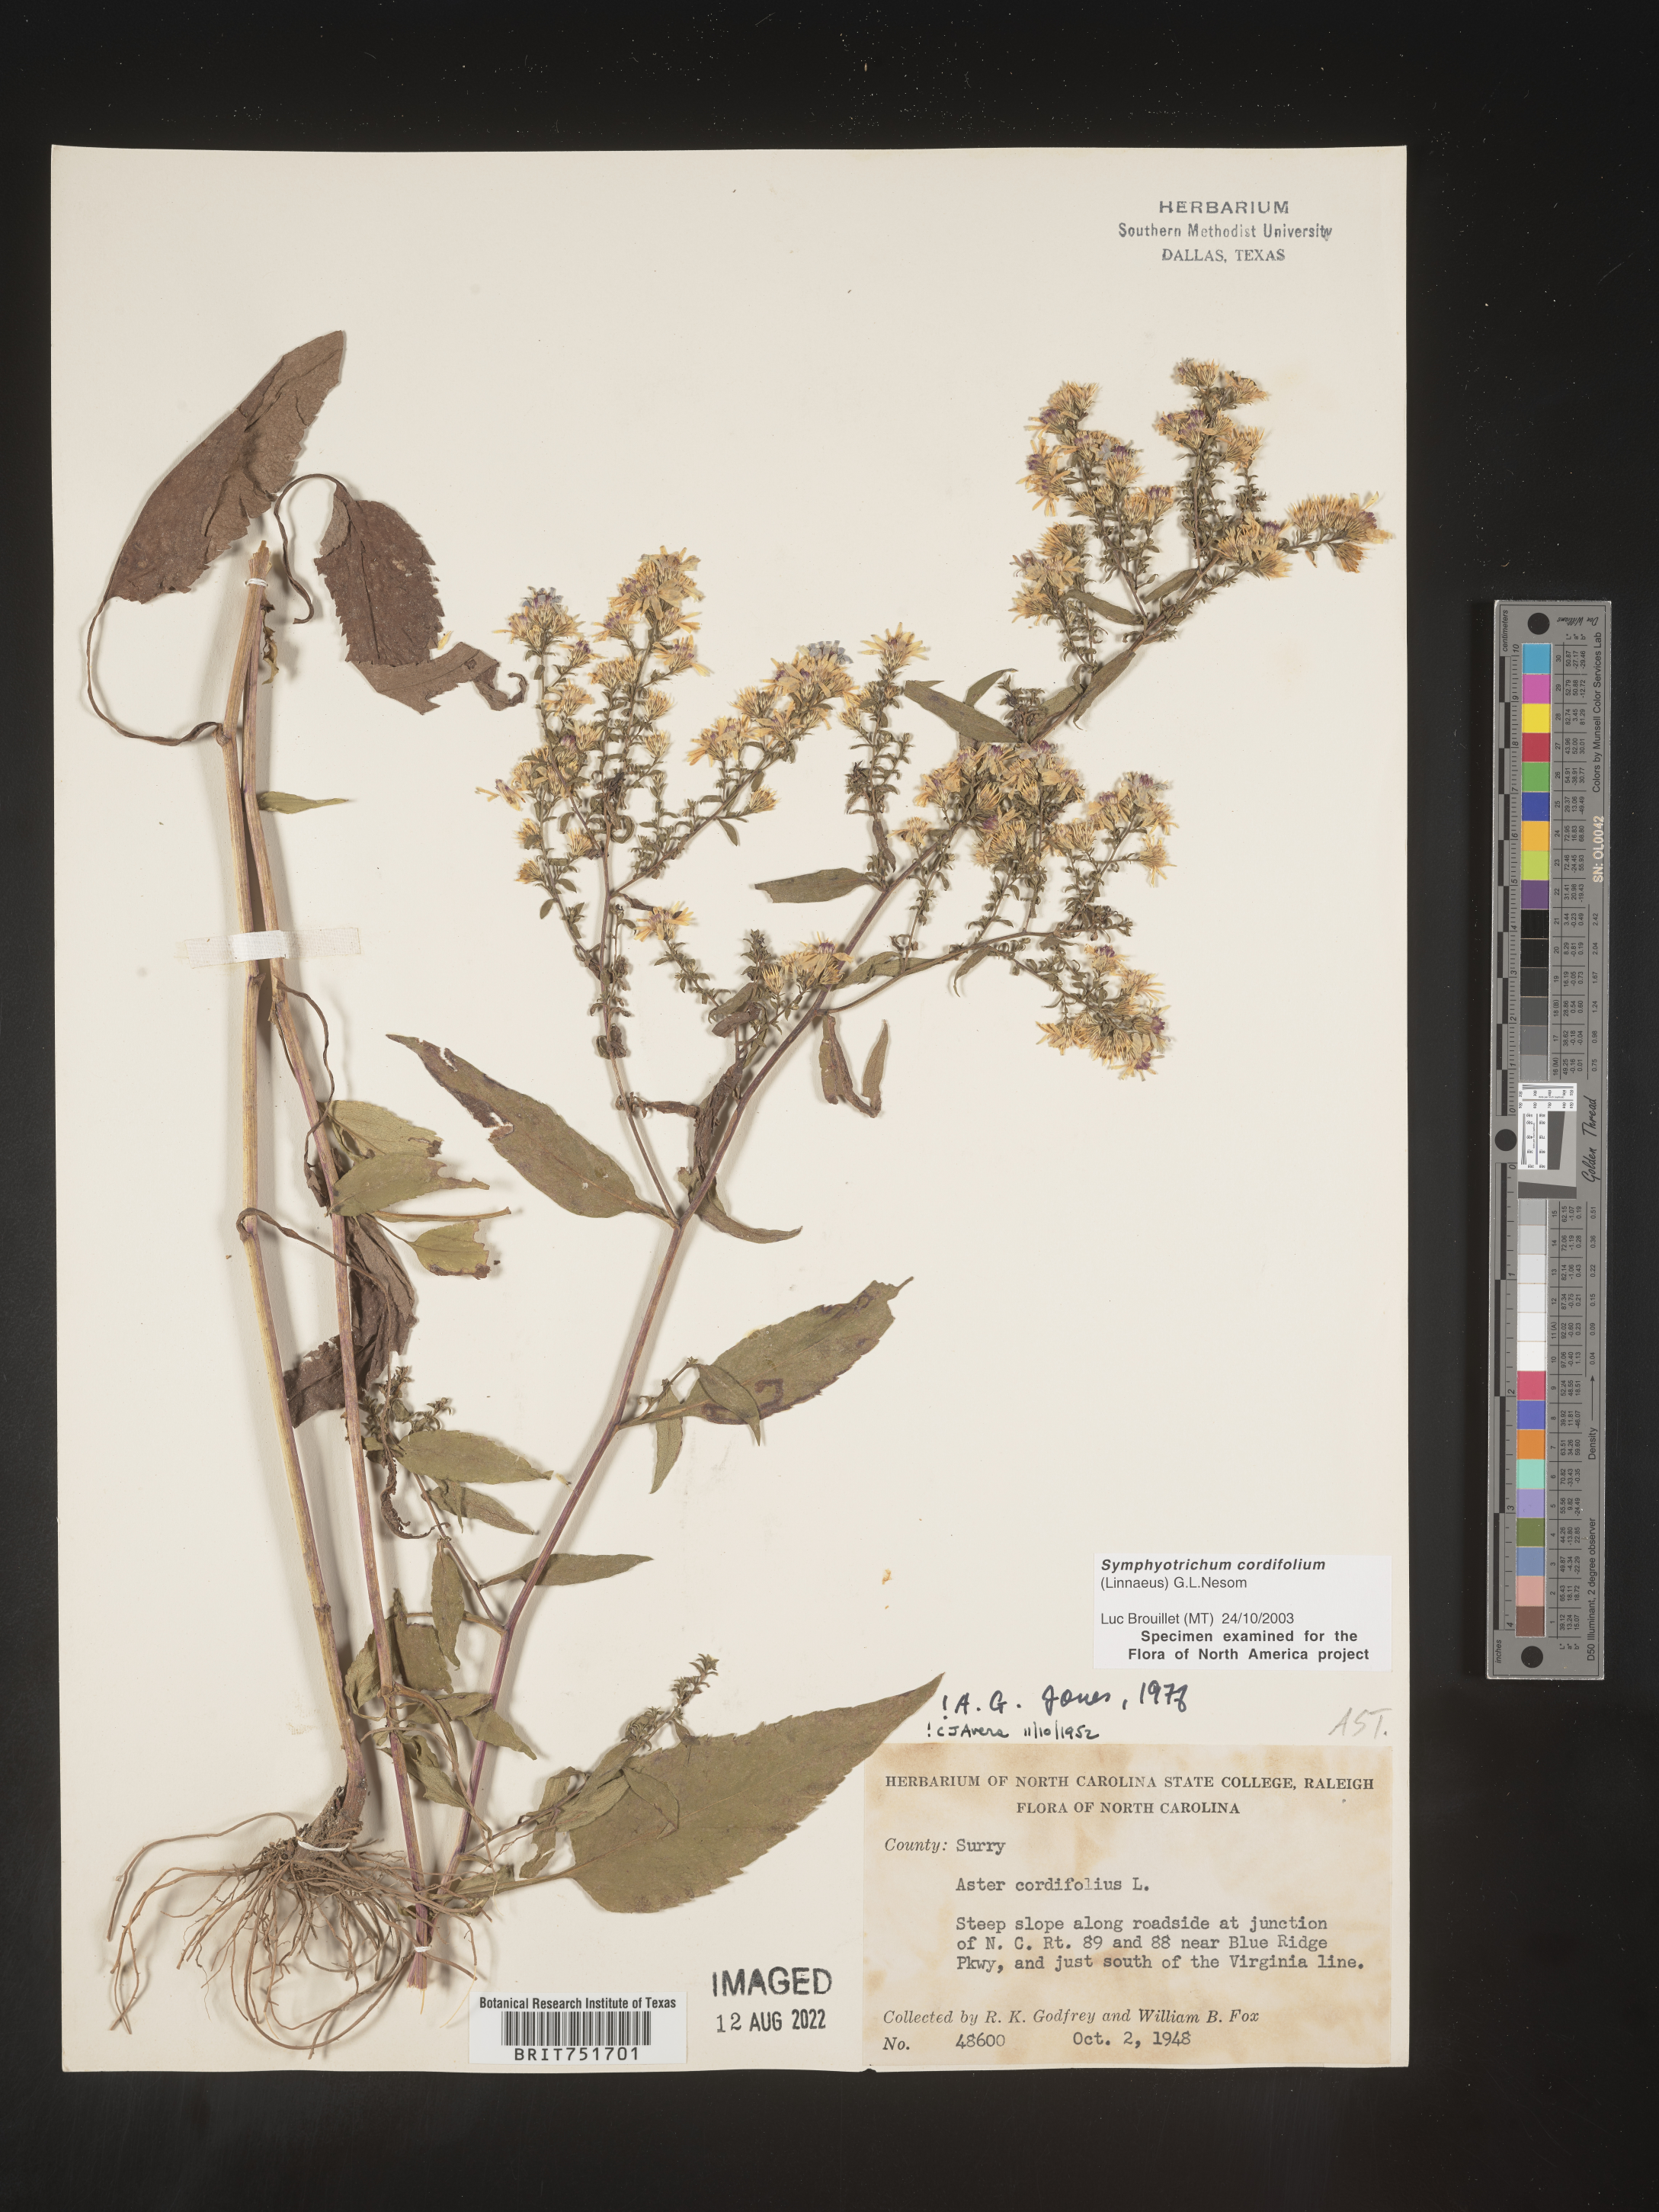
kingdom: Plantae
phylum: Tracheophyta
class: Magnoliopsida
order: Asterales
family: Asteraceae
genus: Symphyotrichum
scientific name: Symphyotrichum cordifolium
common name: Beeweed
